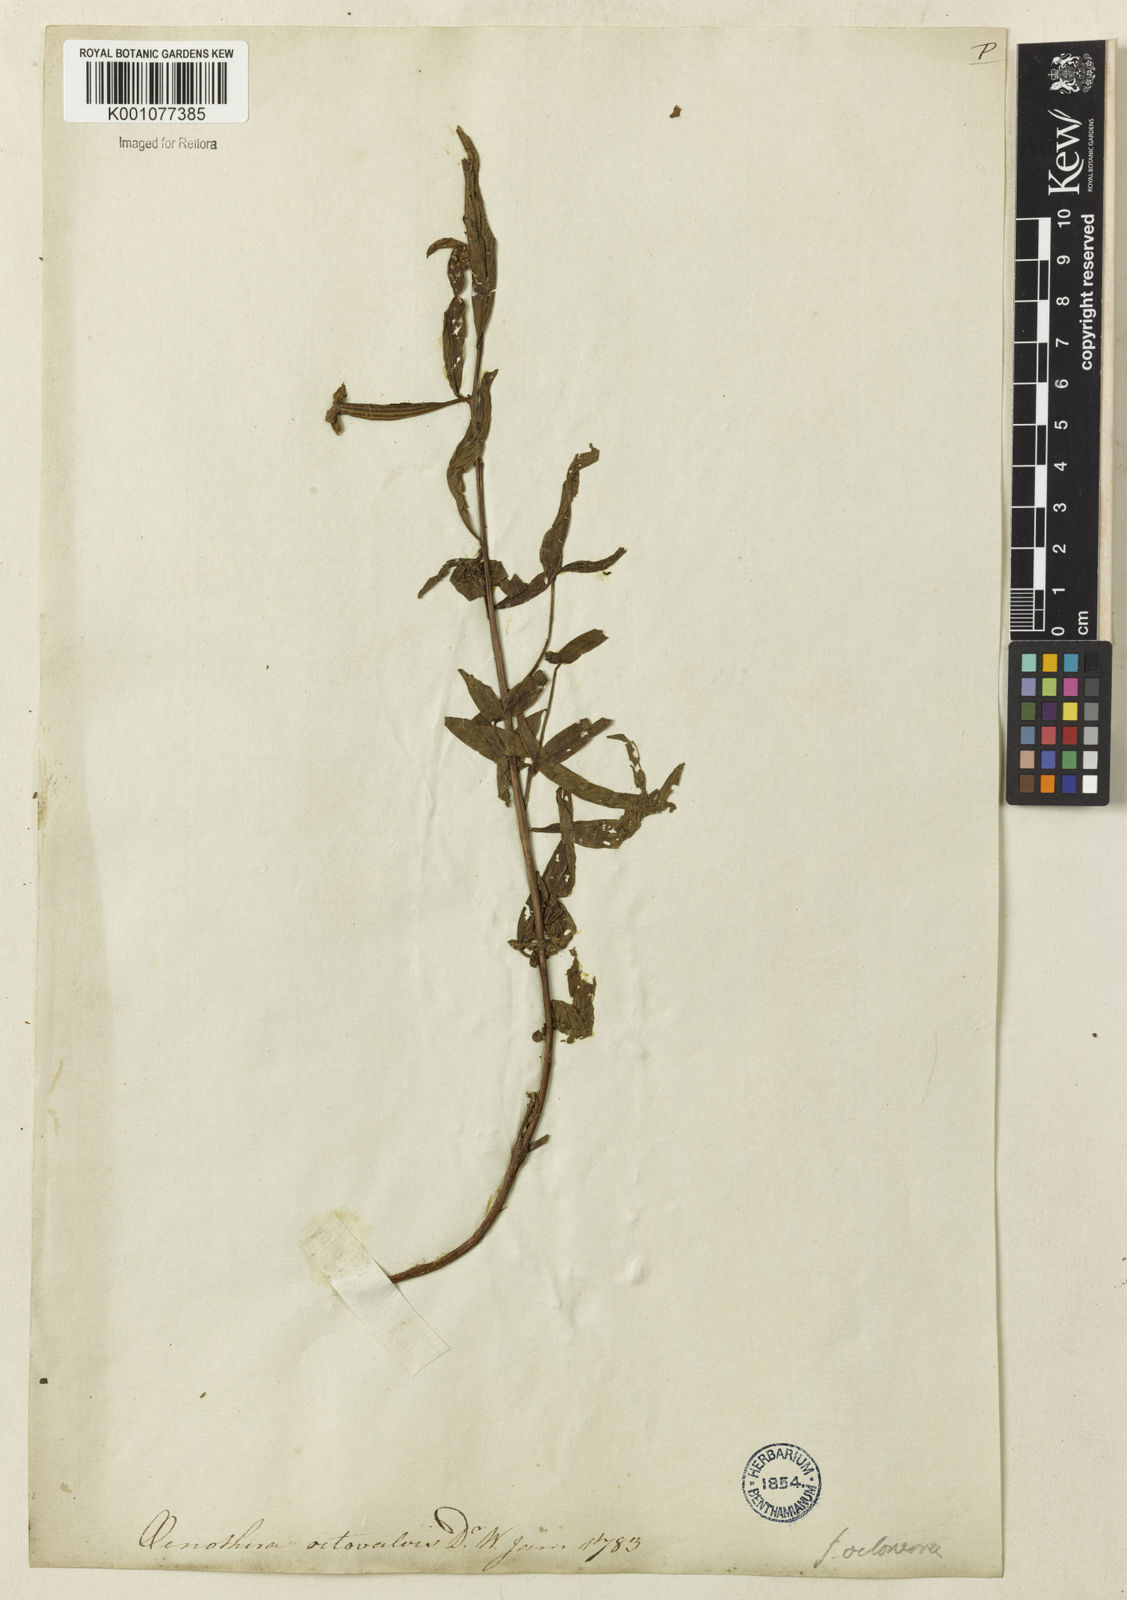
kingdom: Plantae
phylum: Tracheophyta
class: Magnoliopsida
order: Myrtales
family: Onagraceae
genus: Ludwigia
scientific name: Ludwigia octovalvis
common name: Water-primrose
